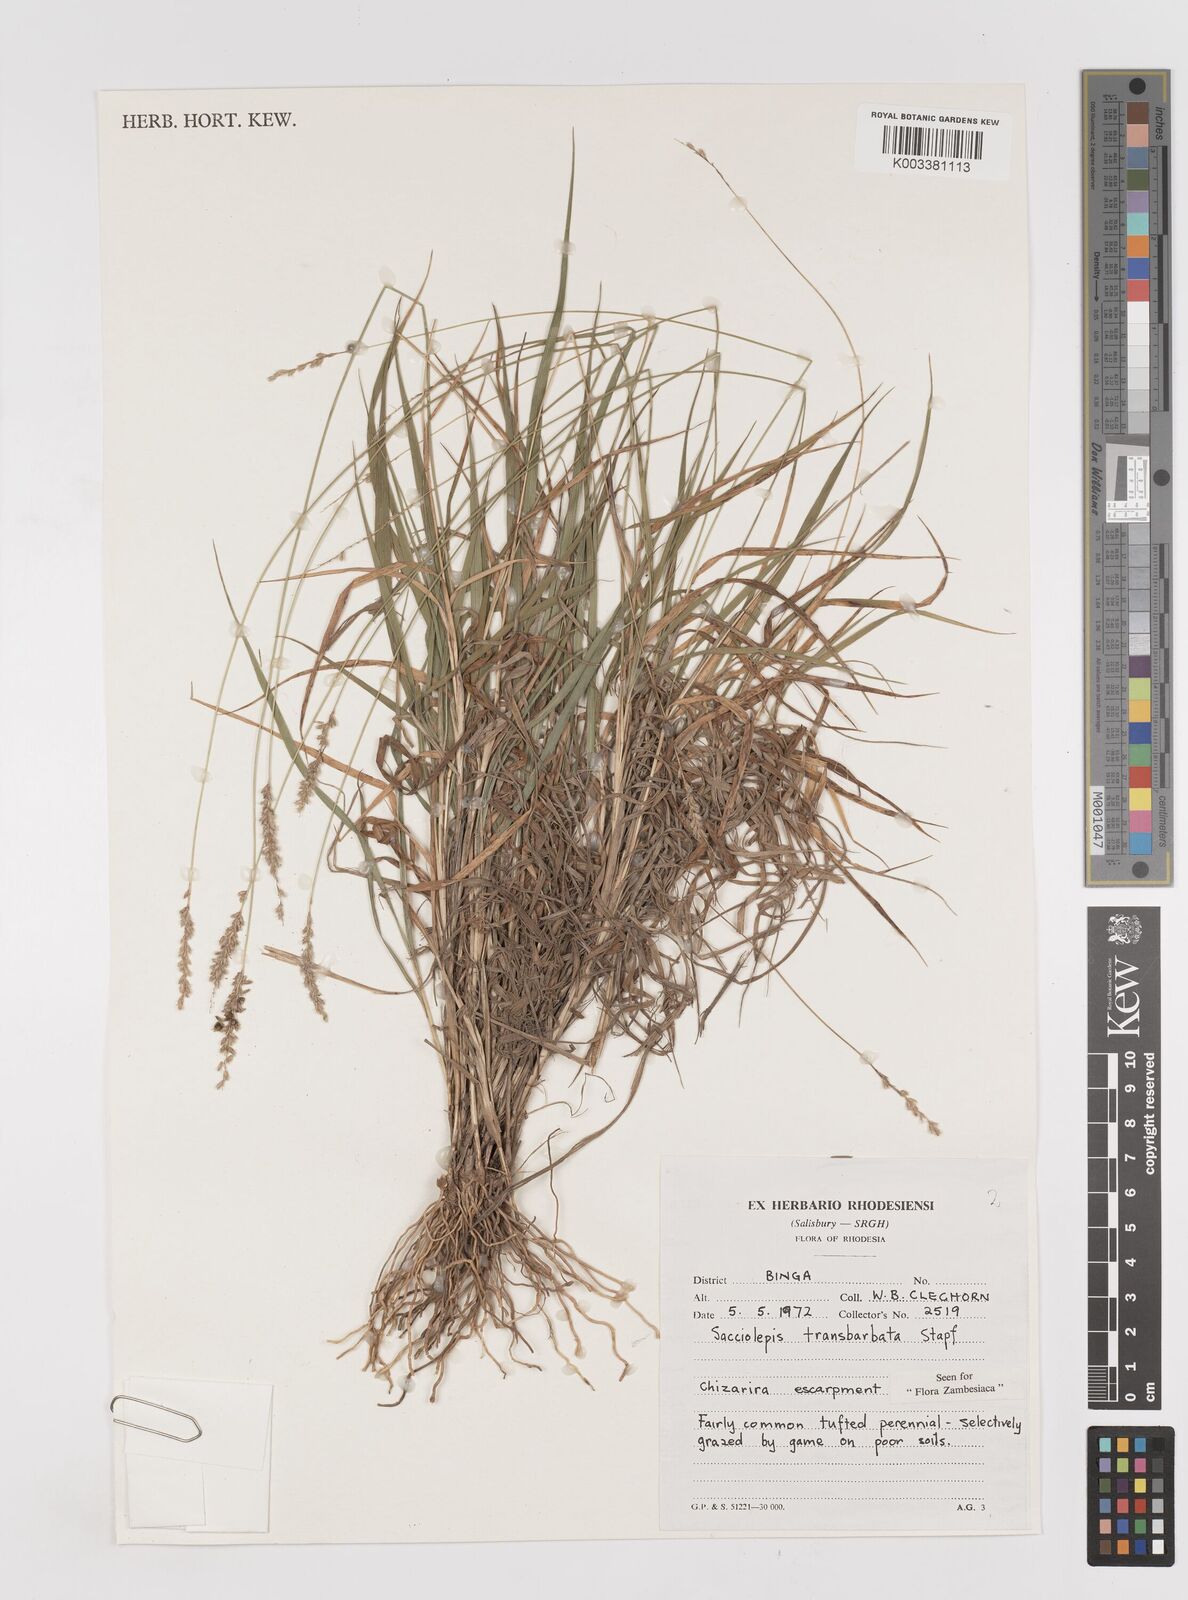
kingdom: Plantae
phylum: Tracheophyta
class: Liliopsida
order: Poales
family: Poaceae
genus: Sacciolepis
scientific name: Sacciolepis transbarbata
